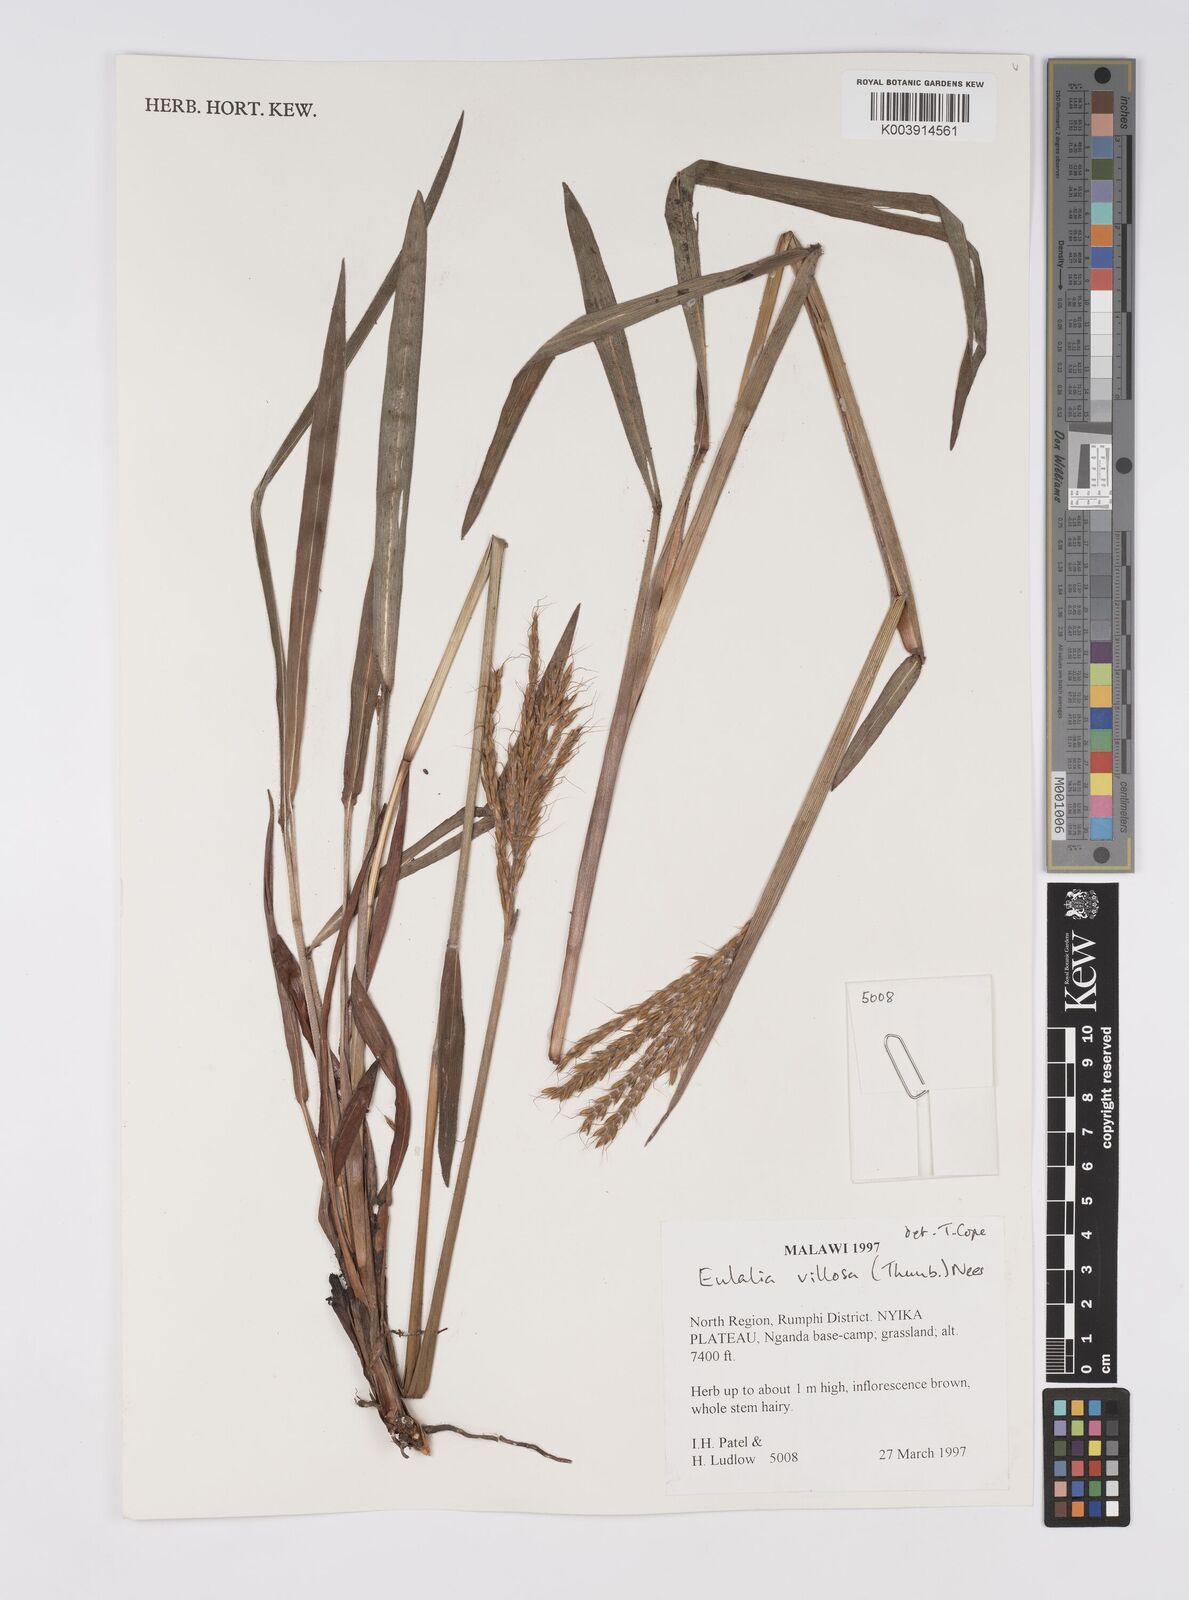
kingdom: Plantae
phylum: Tracheophyta
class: Liliopsida
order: Poales
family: Poaceae
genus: Eulalia
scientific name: Eulalia villosa
